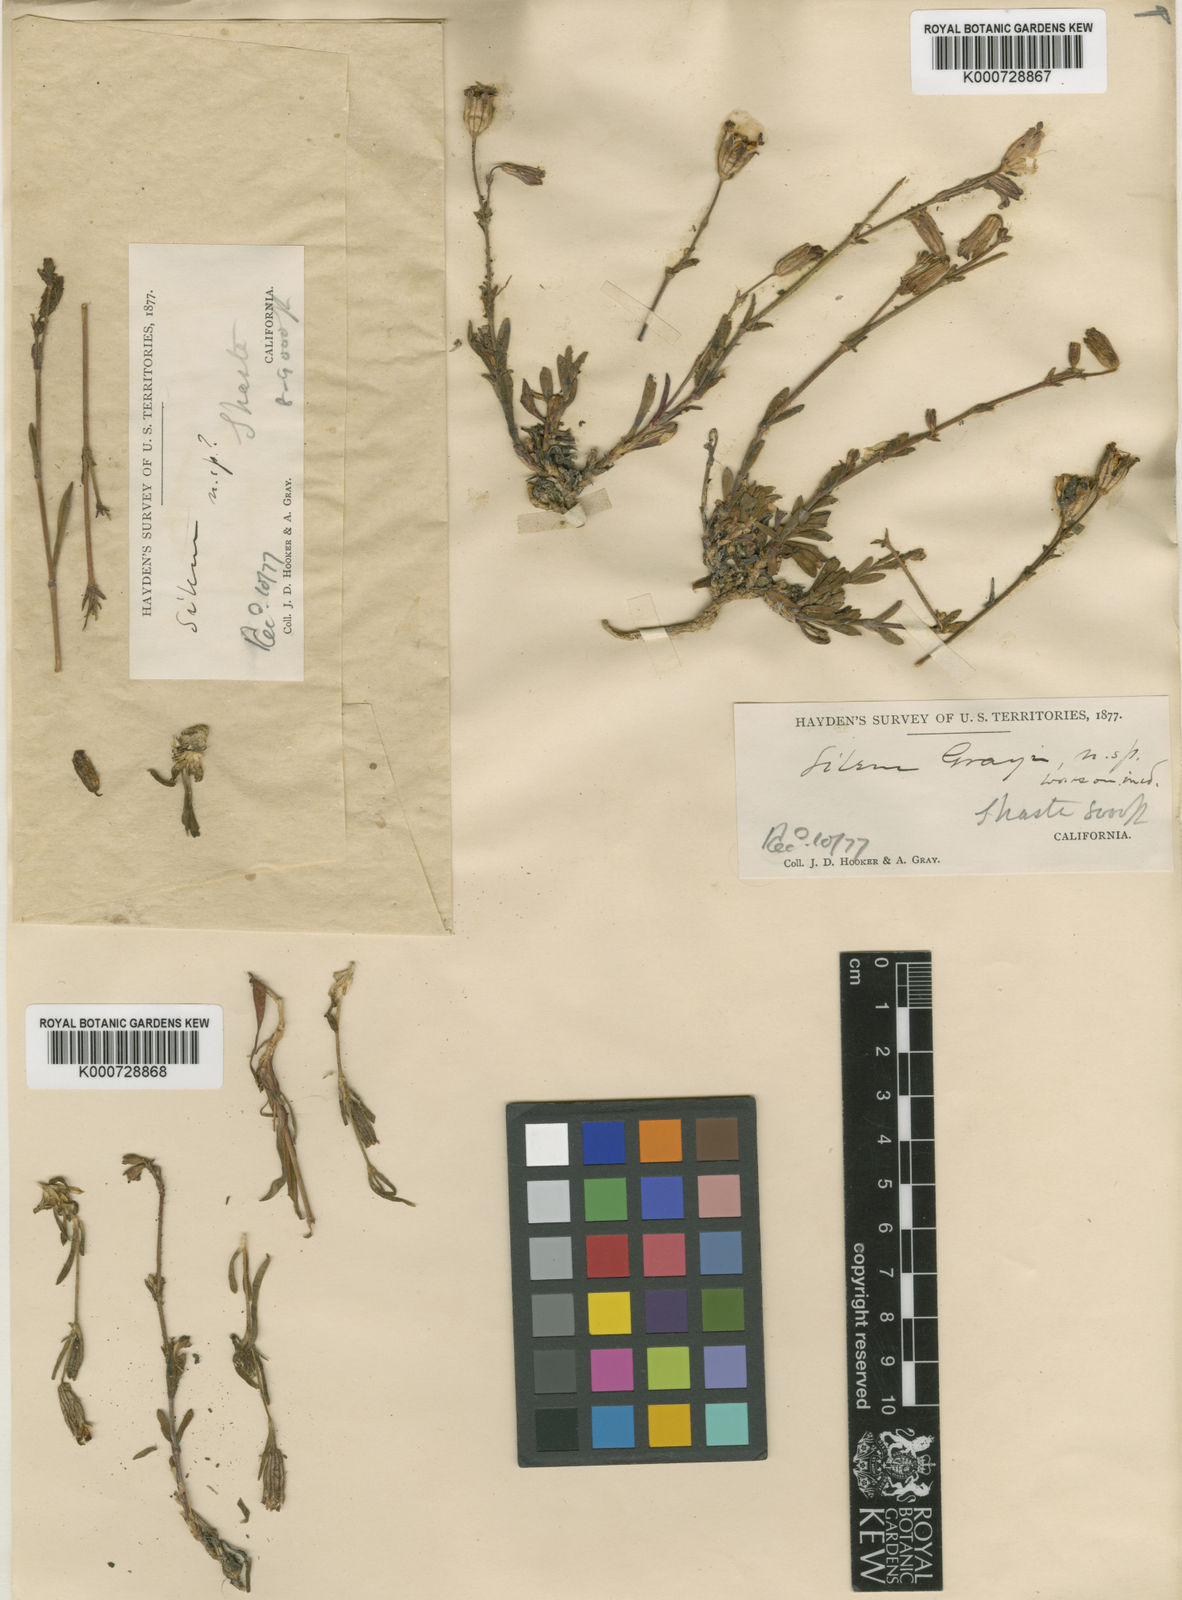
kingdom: Plantae
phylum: Tracheophyta
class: Magnoliopsida
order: Caryophyllales
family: Caryophyllaceae
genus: Silene
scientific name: Silene grayi
